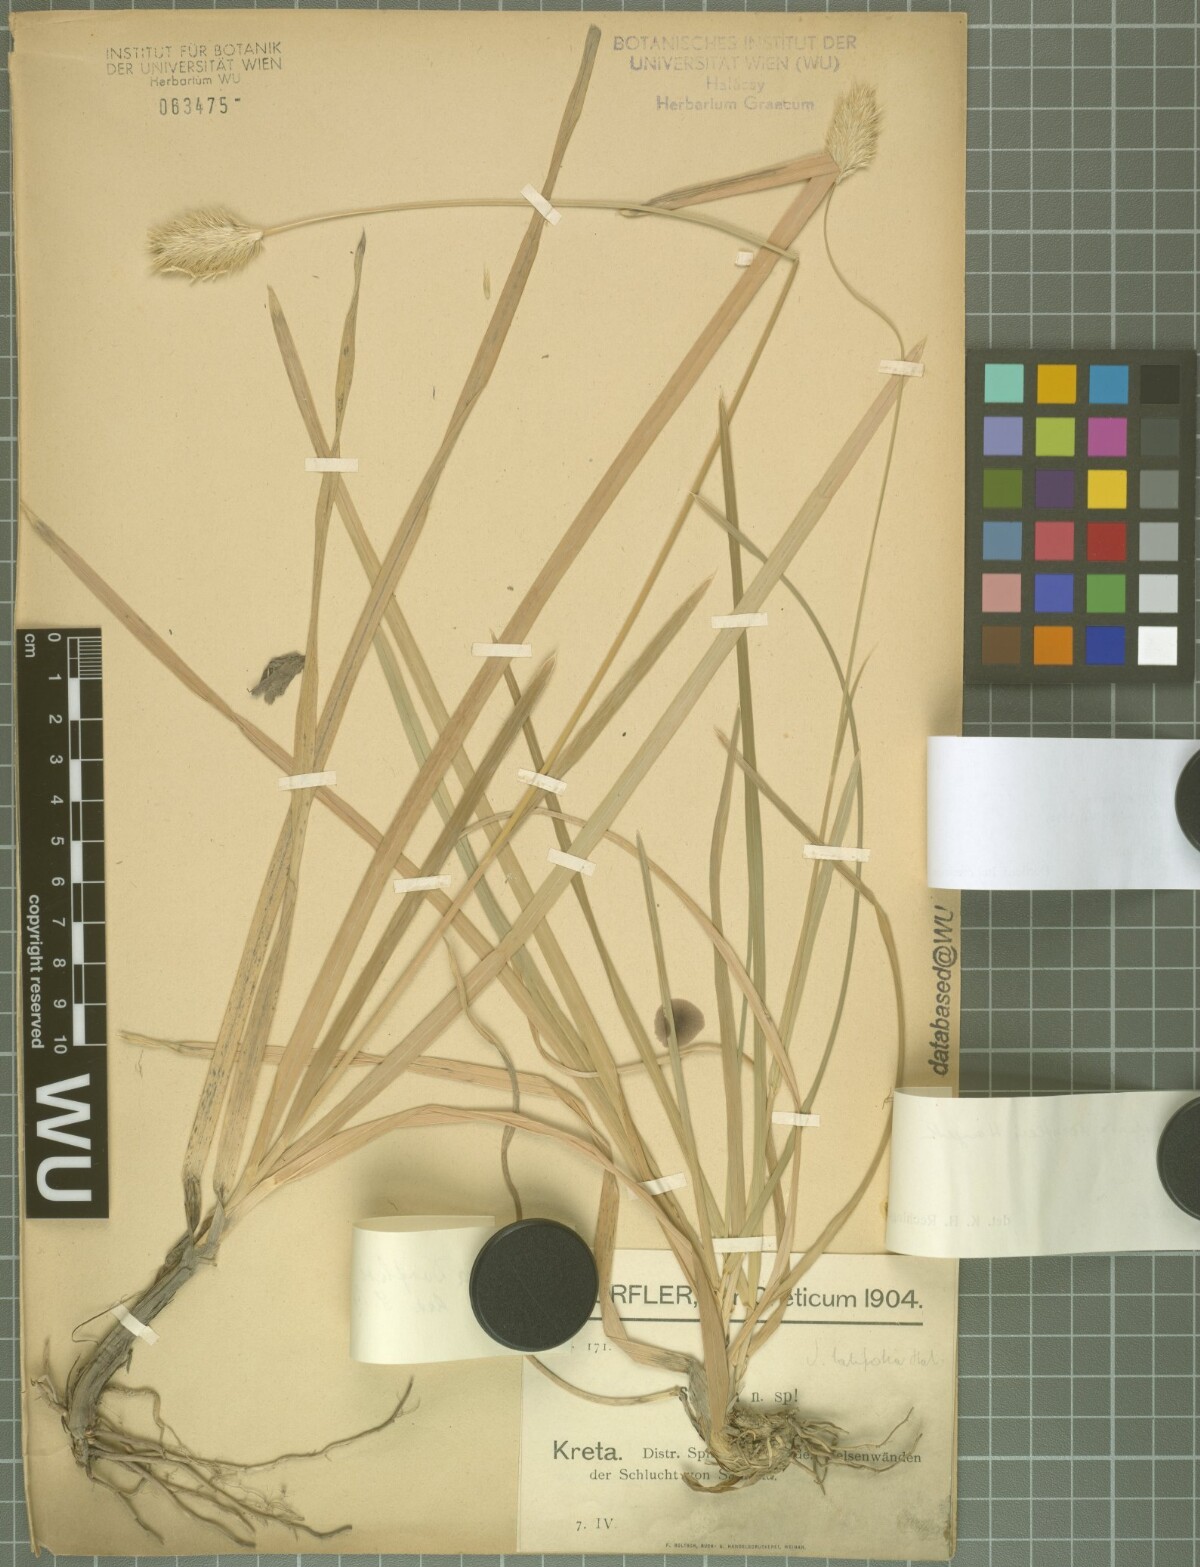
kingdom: Plantae
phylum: Tracheophyta
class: Liliopsida
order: Poales
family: Poaceae
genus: Sesleria
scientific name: Sesleria doerfleri
